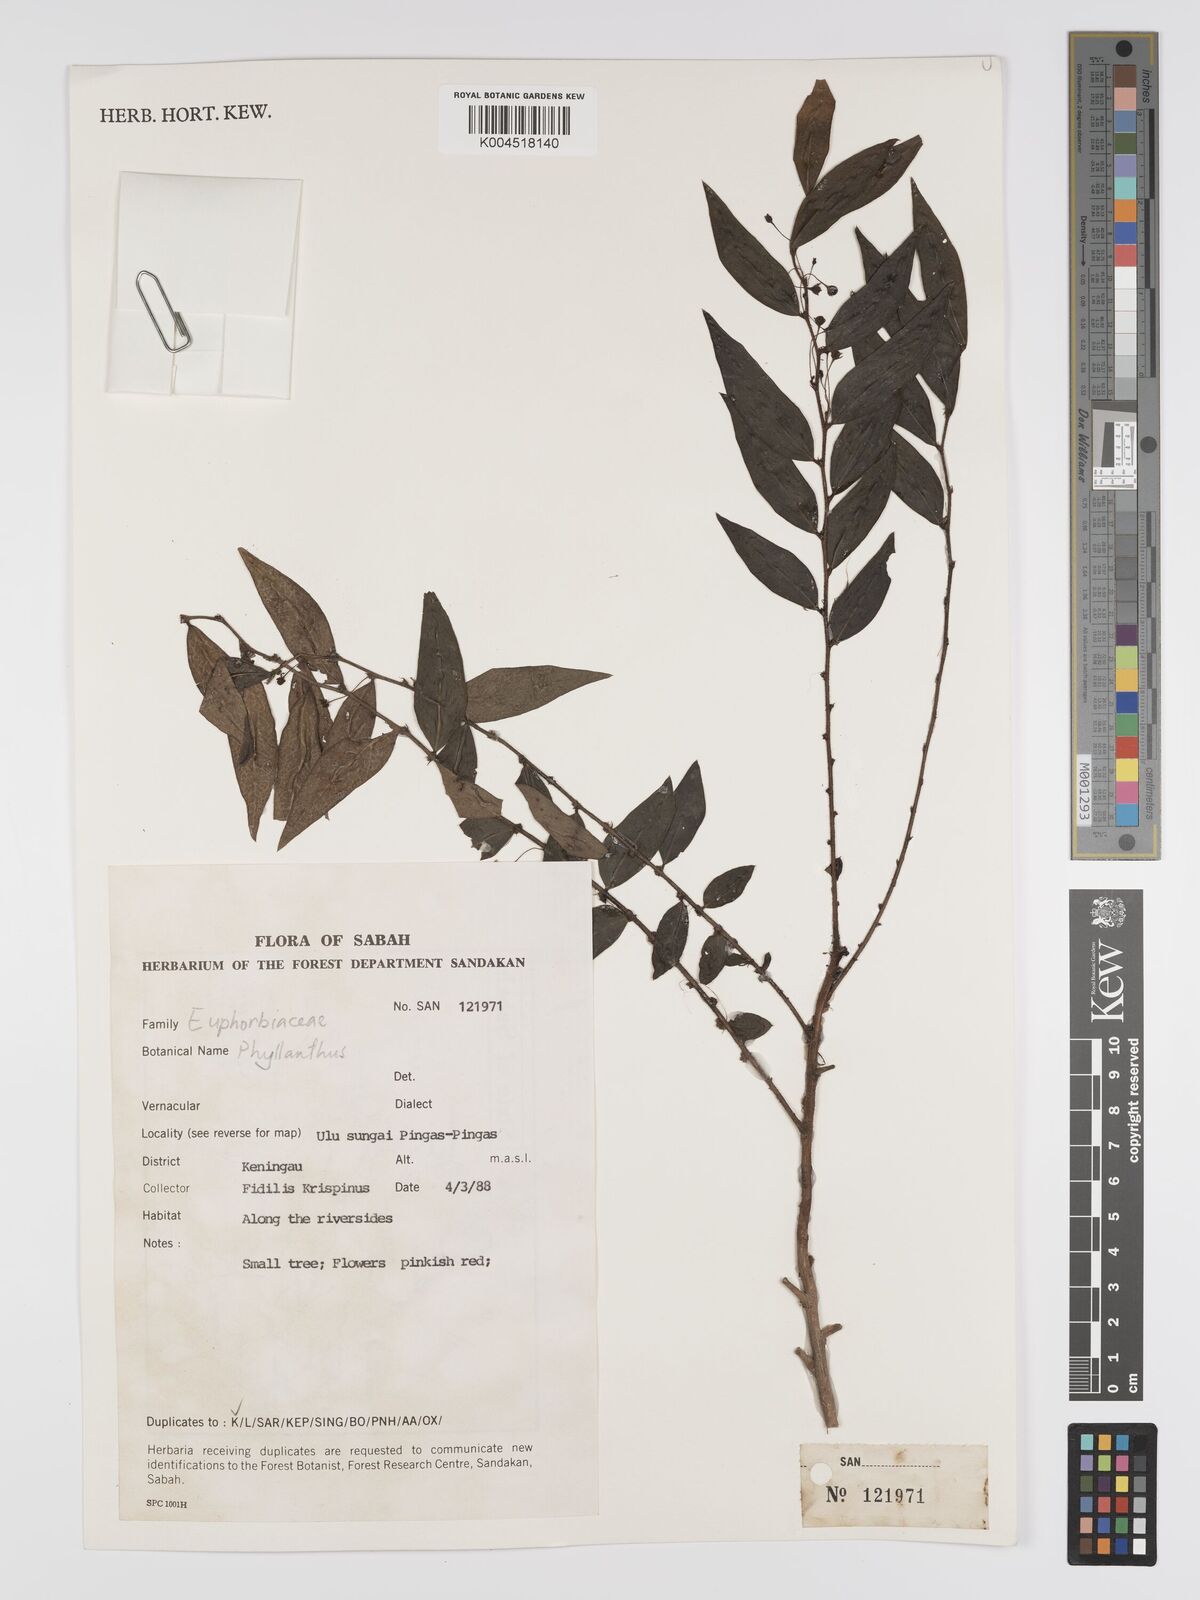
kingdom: Plantae
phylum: Tracheophyta
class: Magnoliopsida
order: Malpighiales
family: Phyllanthaceae
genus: Phyllanthus
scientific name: Phyllanthus
